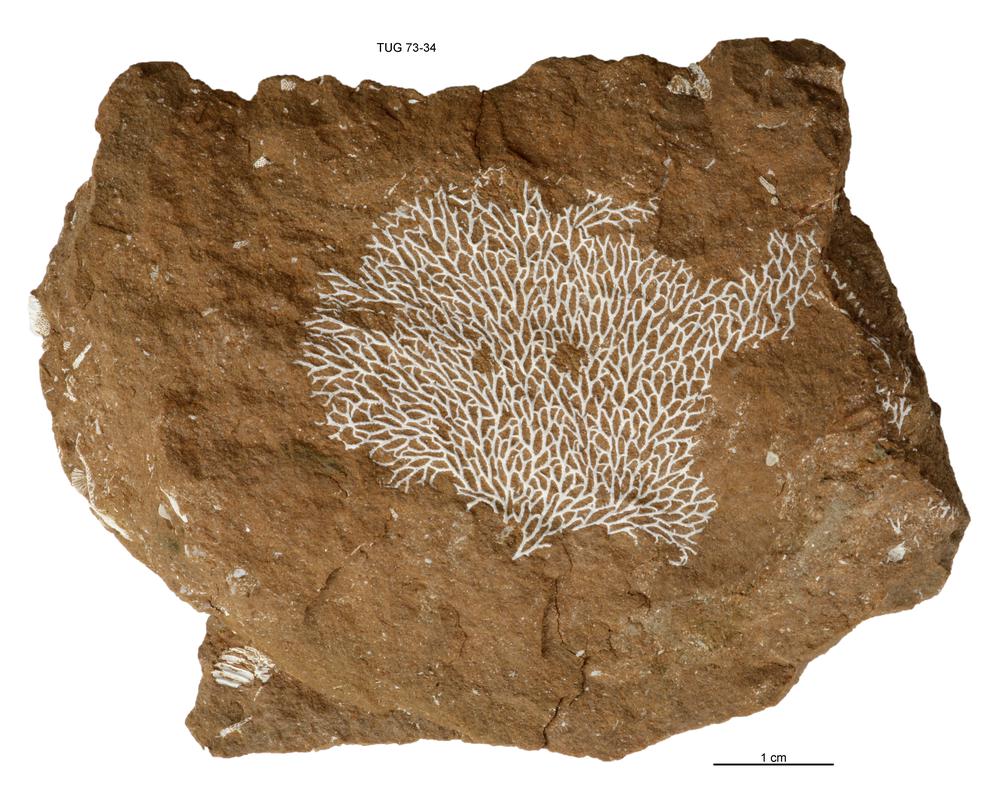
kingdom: Animalia
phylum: Bryozoa
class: Stenolaemata
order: Fenestrida
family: Chasmatoporidae
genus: Chasmatopora
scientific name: Chasmatopora furcata
